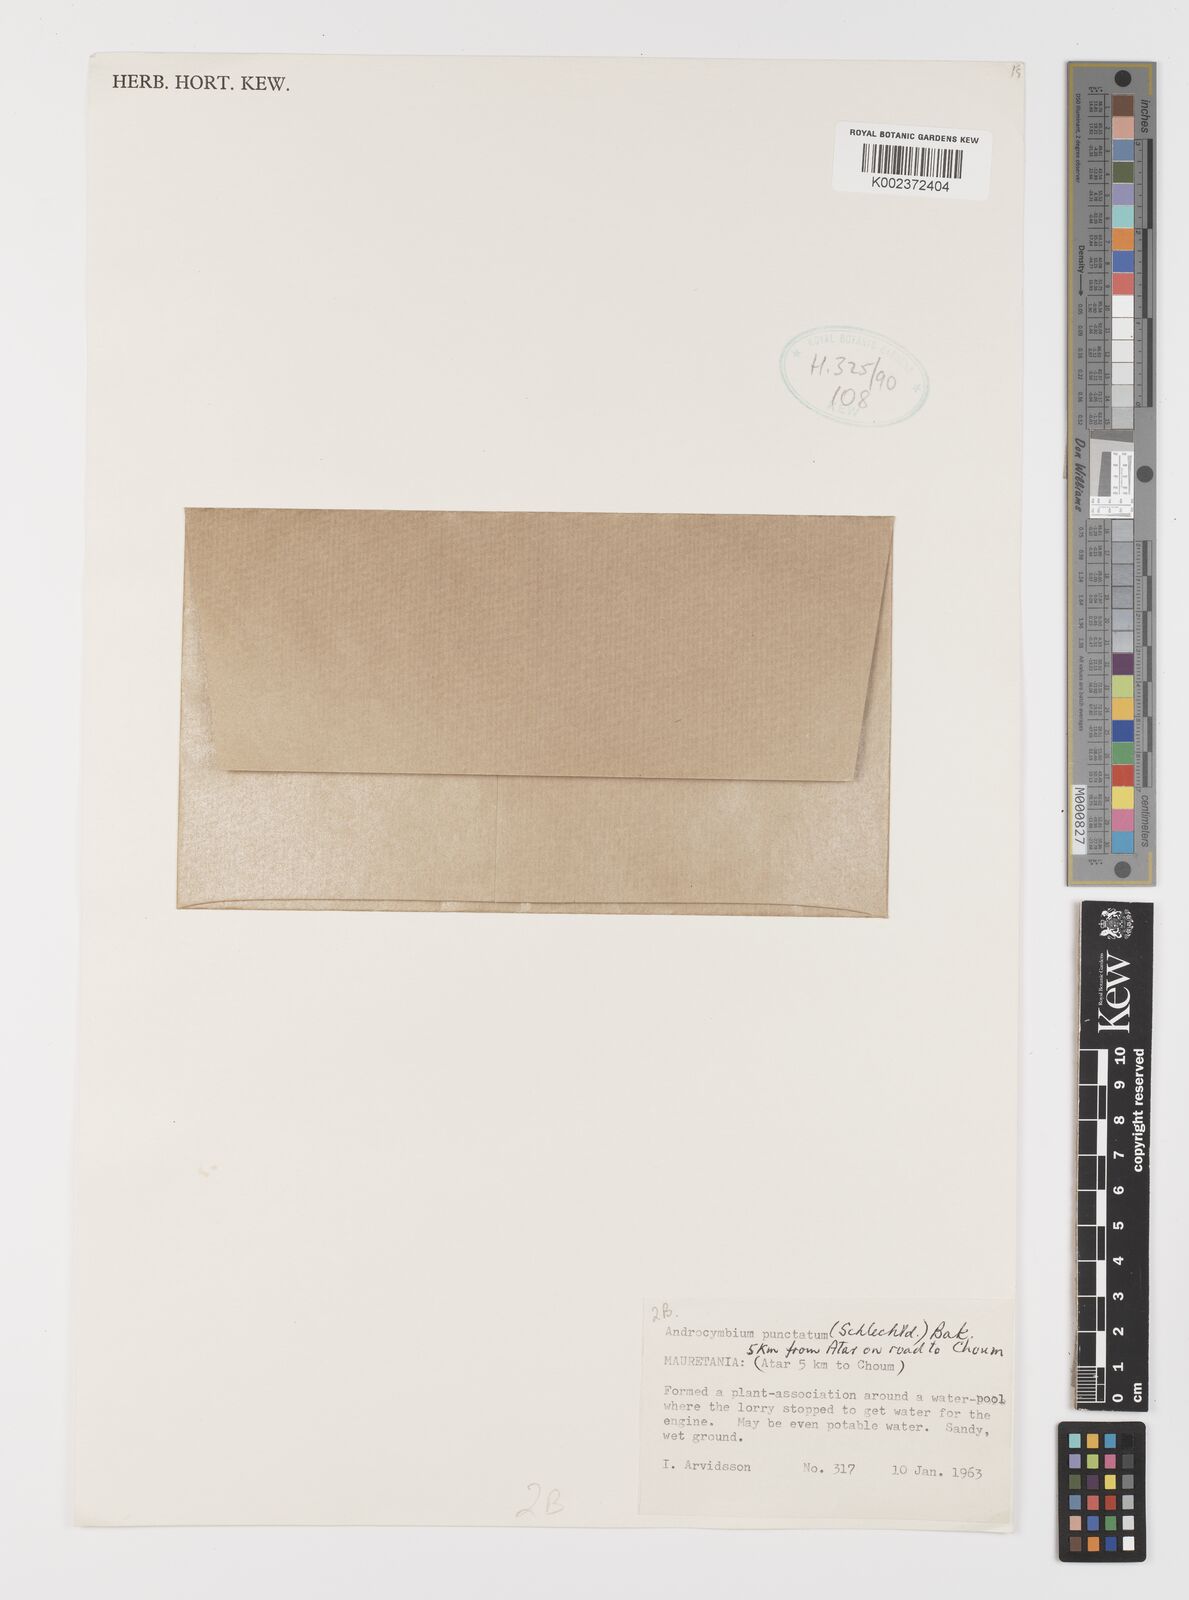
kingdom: Plantae
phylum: Tracheophyta
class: Liliopsida
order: Liliales
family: Colchicaceae
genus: Colchicum
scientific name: Colchicum gramineum
